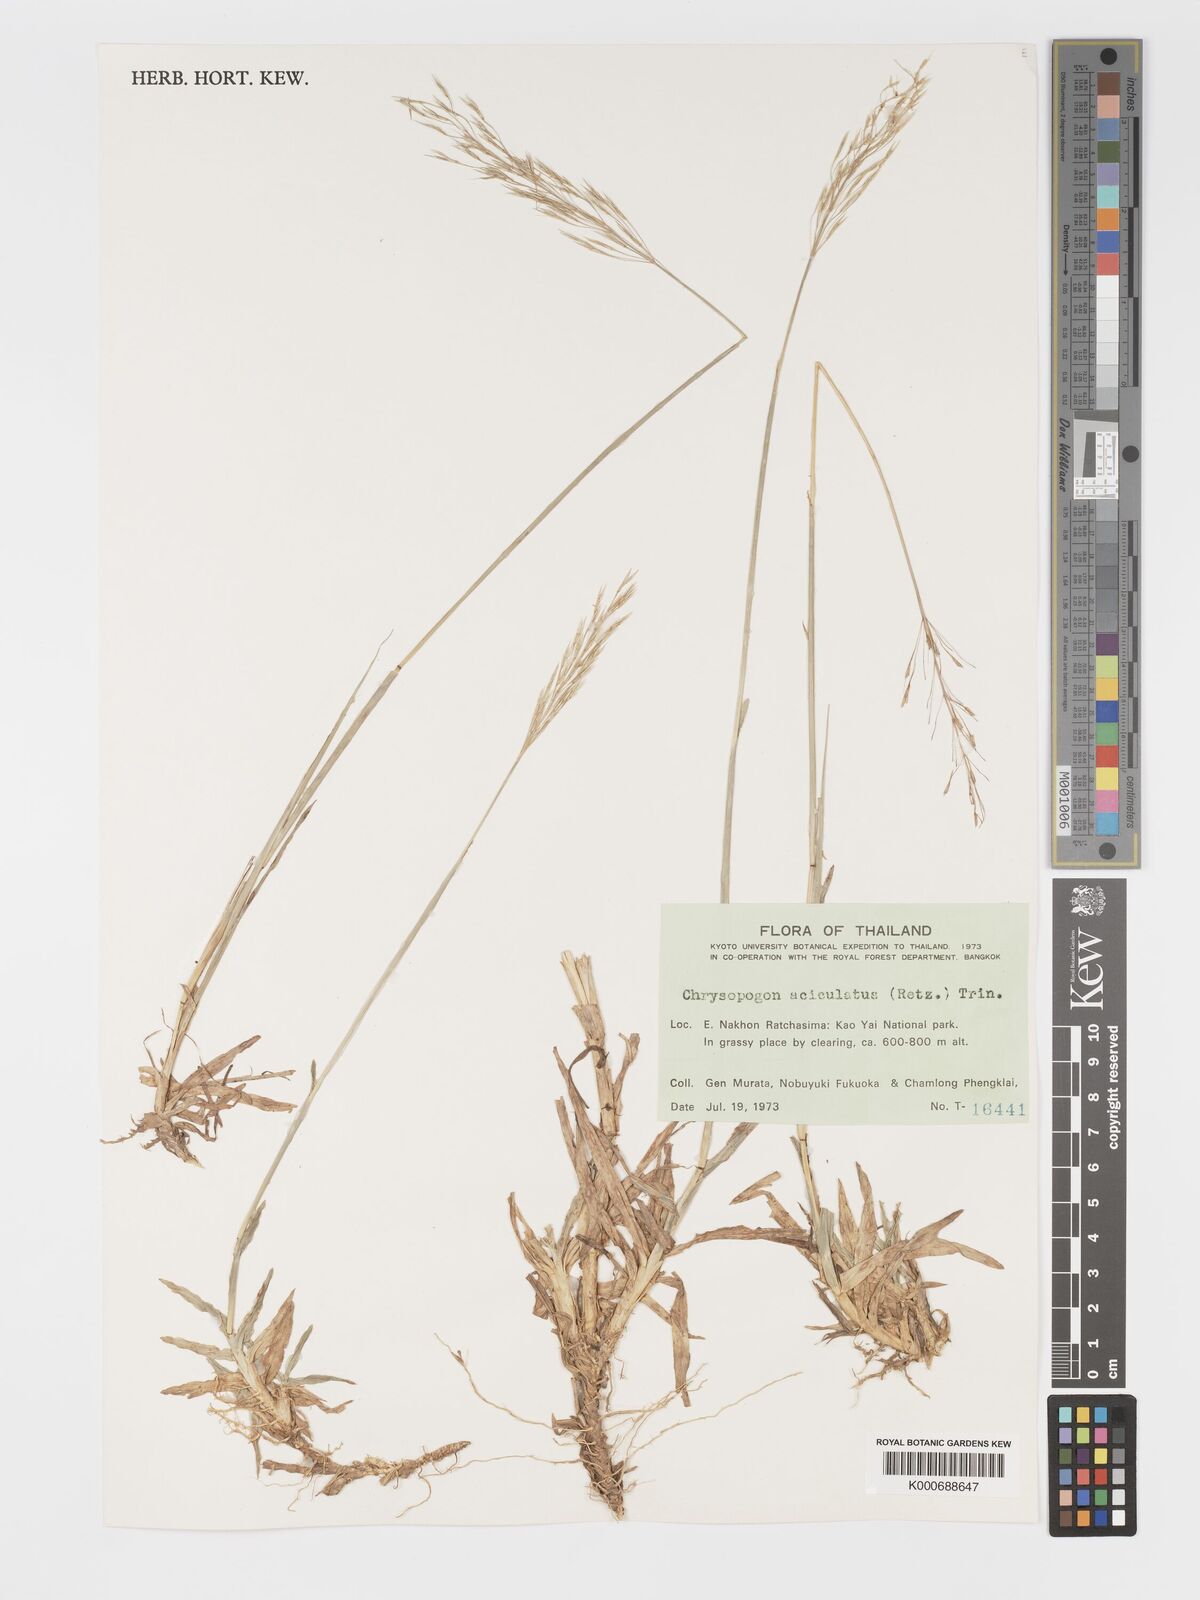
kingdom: Plantae
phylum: Tracheophyta
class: Liliopsida
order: Poales
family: Poaceae
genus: Chrysopogon
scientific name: Chrysopogon aciculatus
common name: Pilipiliula
